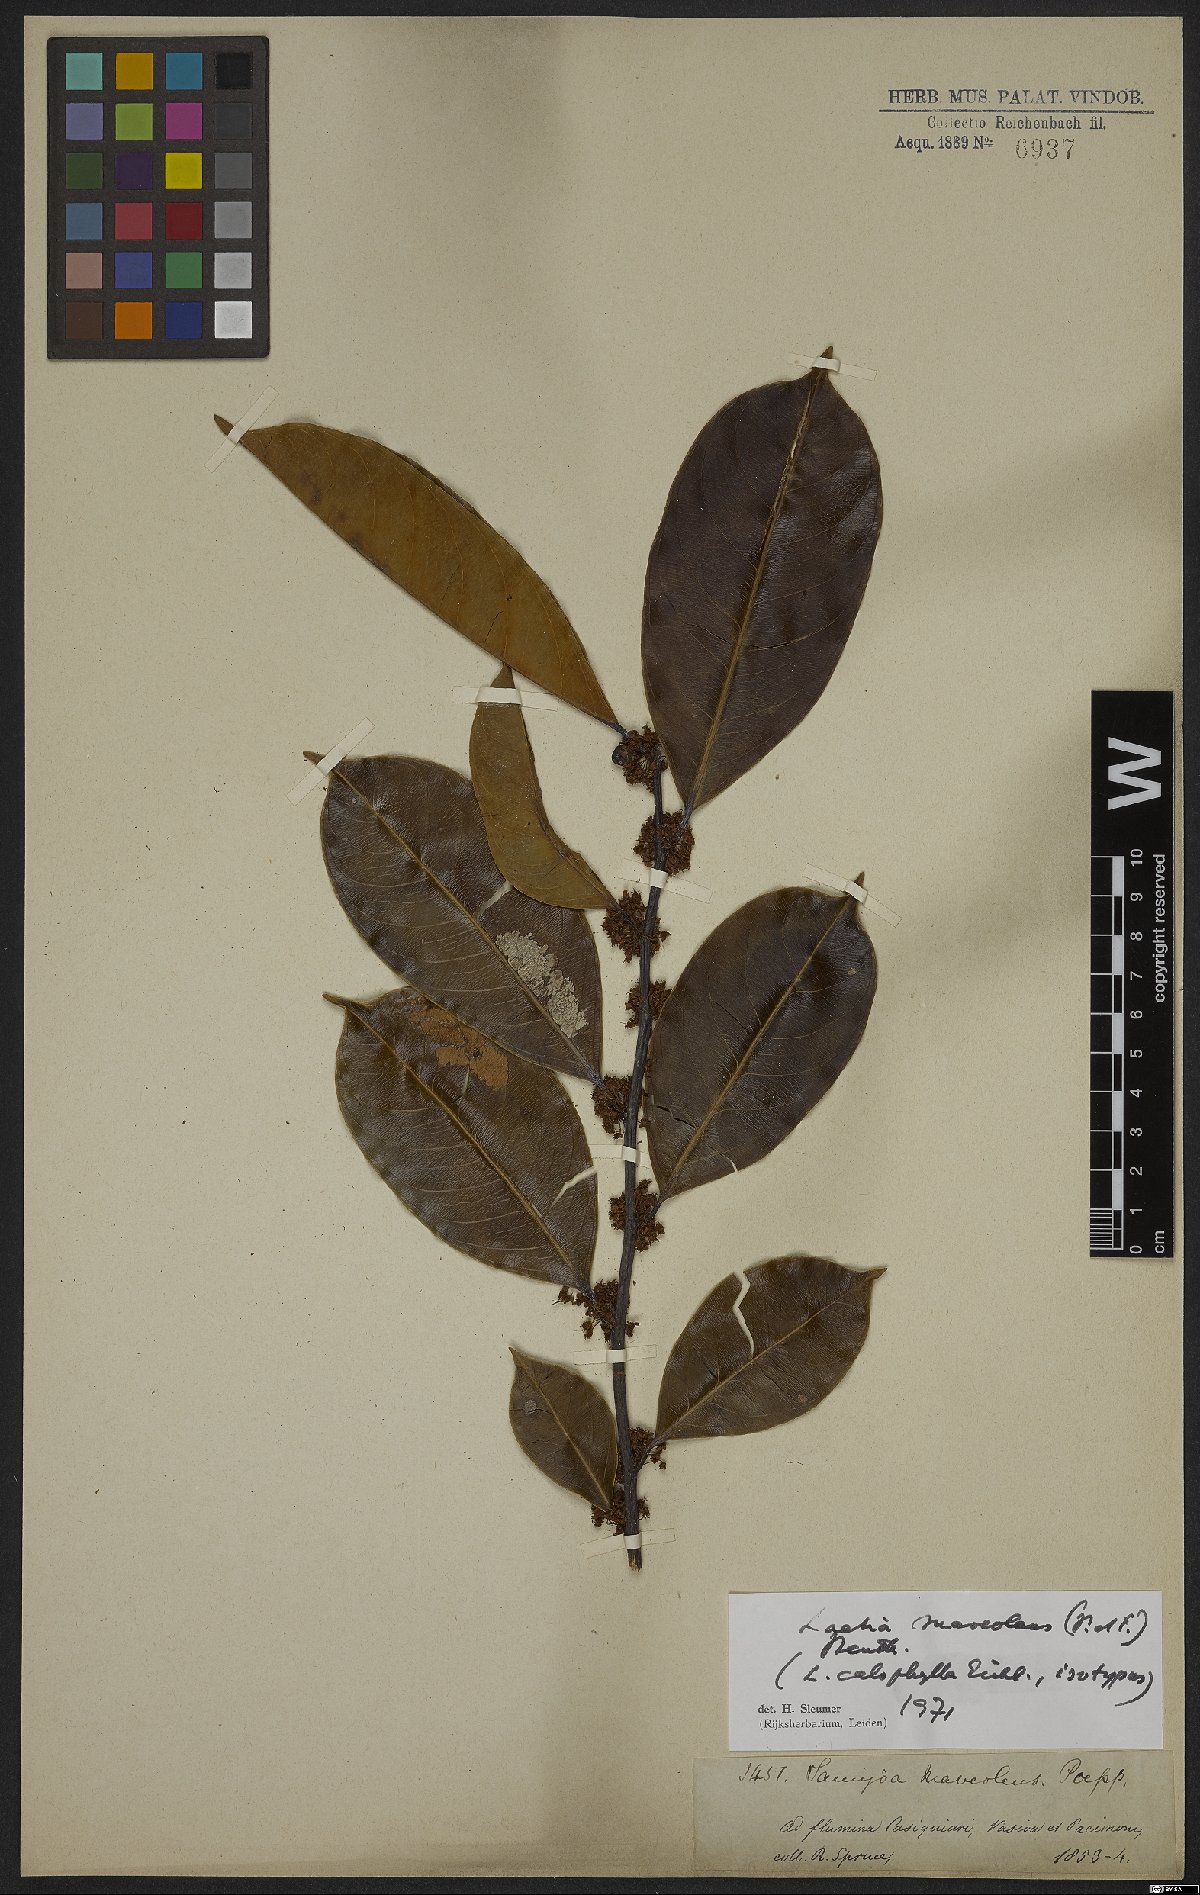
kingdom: Plantae
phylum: Tracheophyta
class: Magnoliopsida
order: Malpighiales
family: Salicaceae
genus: Casearia
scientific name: Casearia suaveolens
